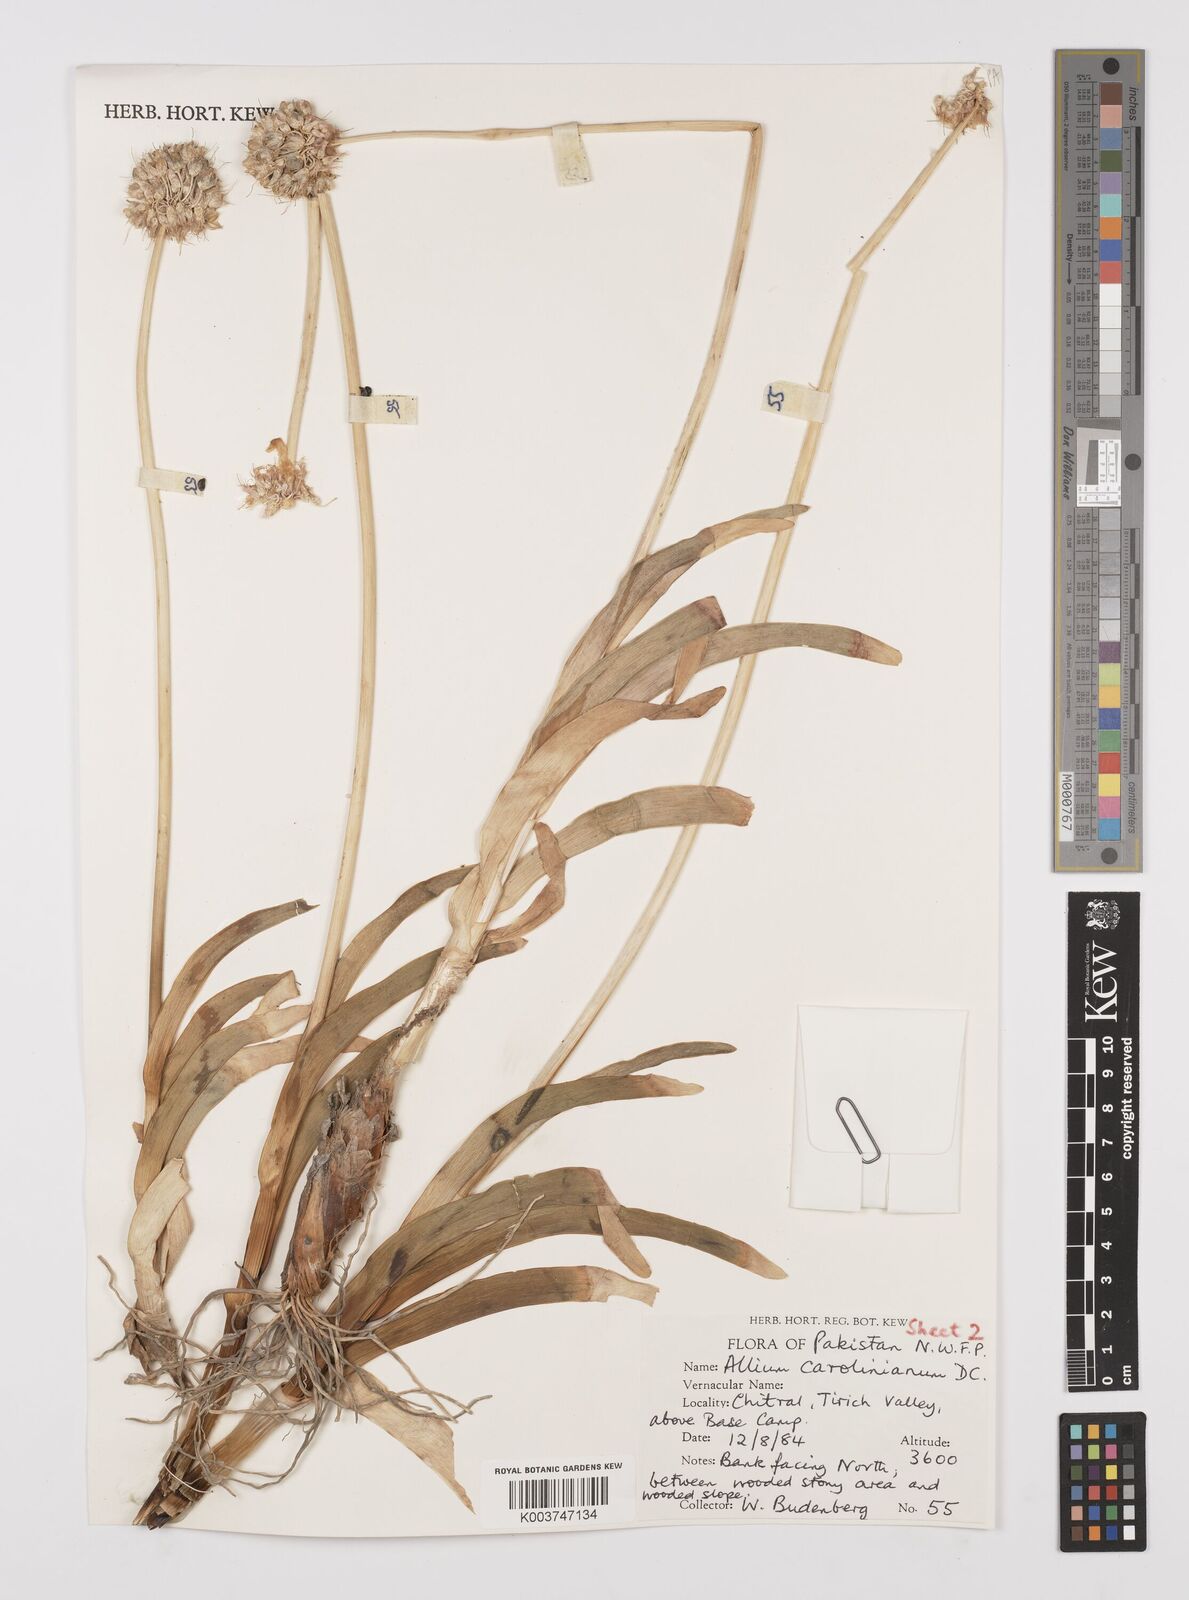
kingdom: Plantae
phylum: Tracheophyta
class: Liliopsida
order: Asparagales
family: Amaryllidaceae
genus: Allium
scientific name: Allium carolinianum
